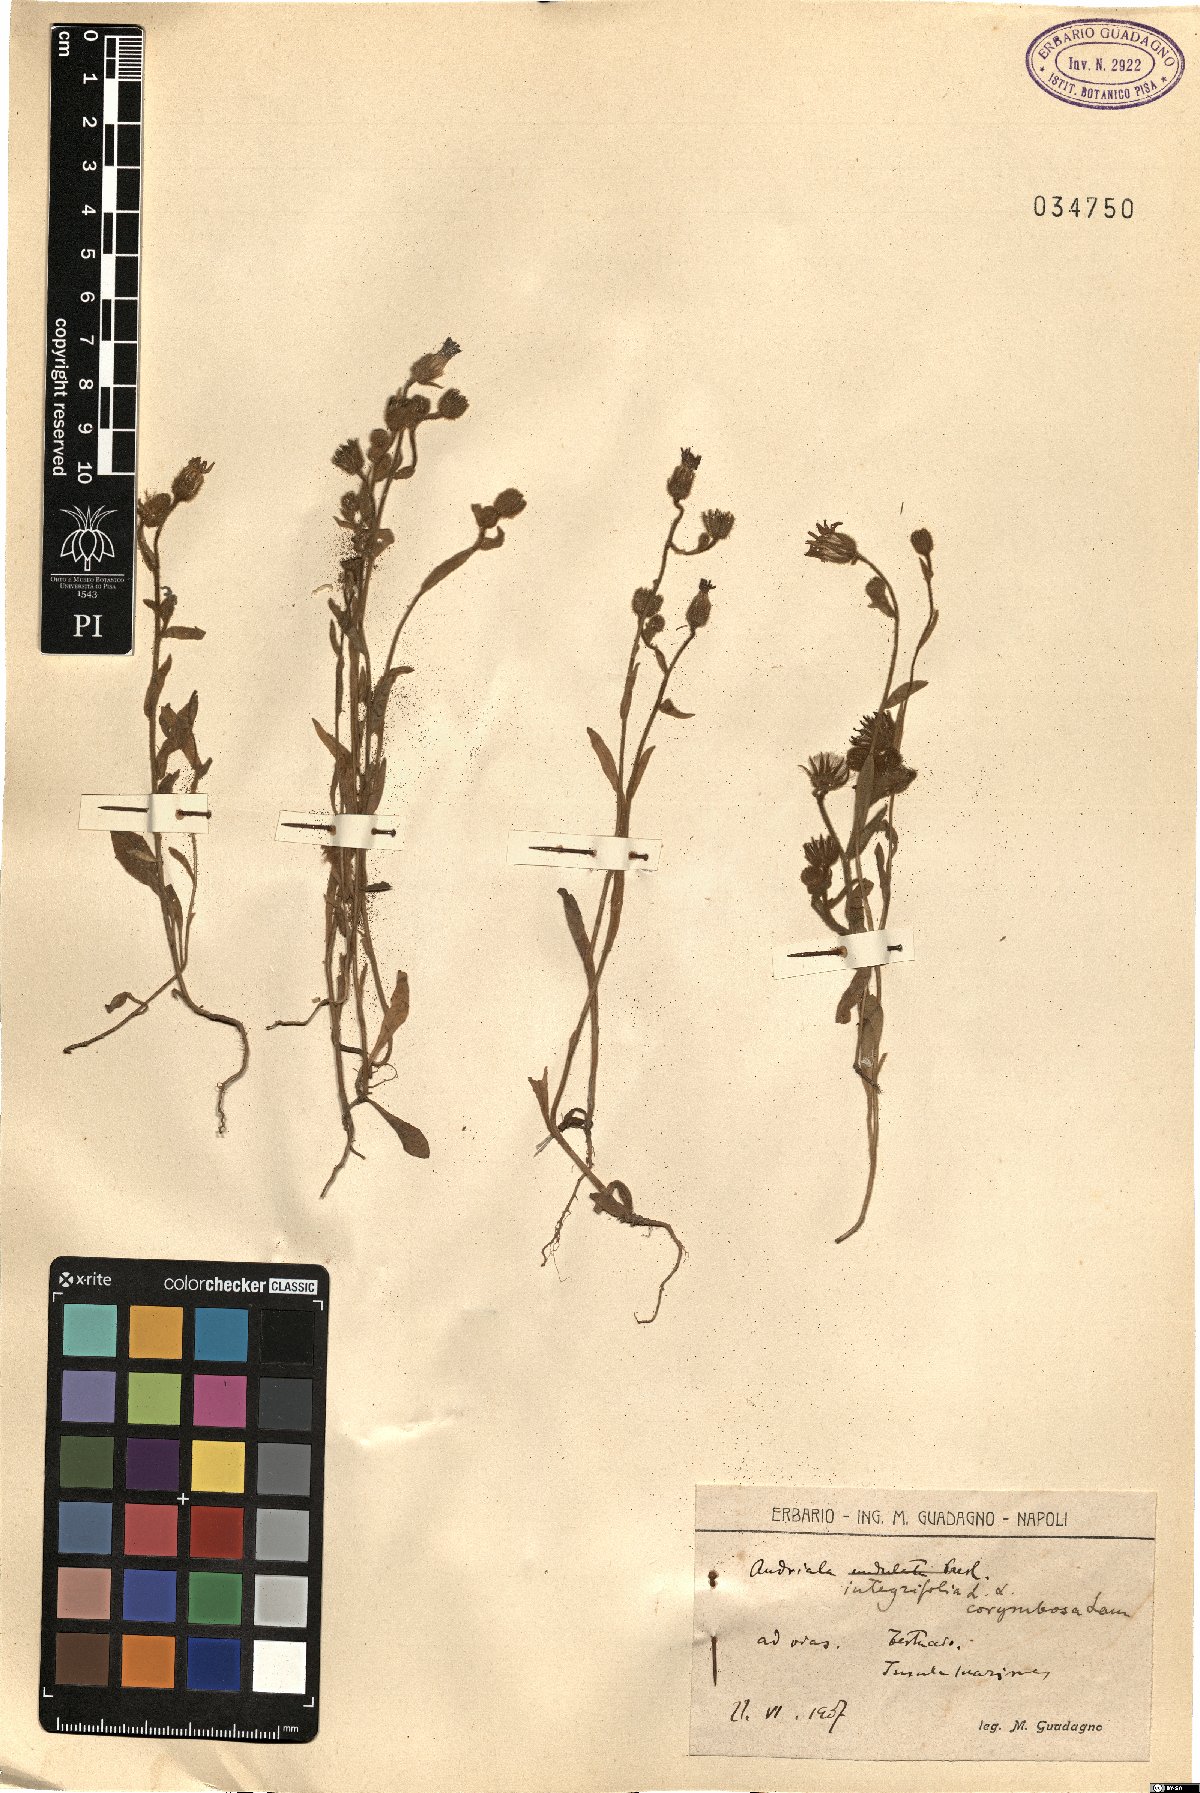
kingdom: Plantae
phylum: Tracheophyta
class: Magnoliopsida
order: Asterales
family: Asteraceae
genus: Andryala
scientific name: Andryala integrifolia
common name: Common andryala
